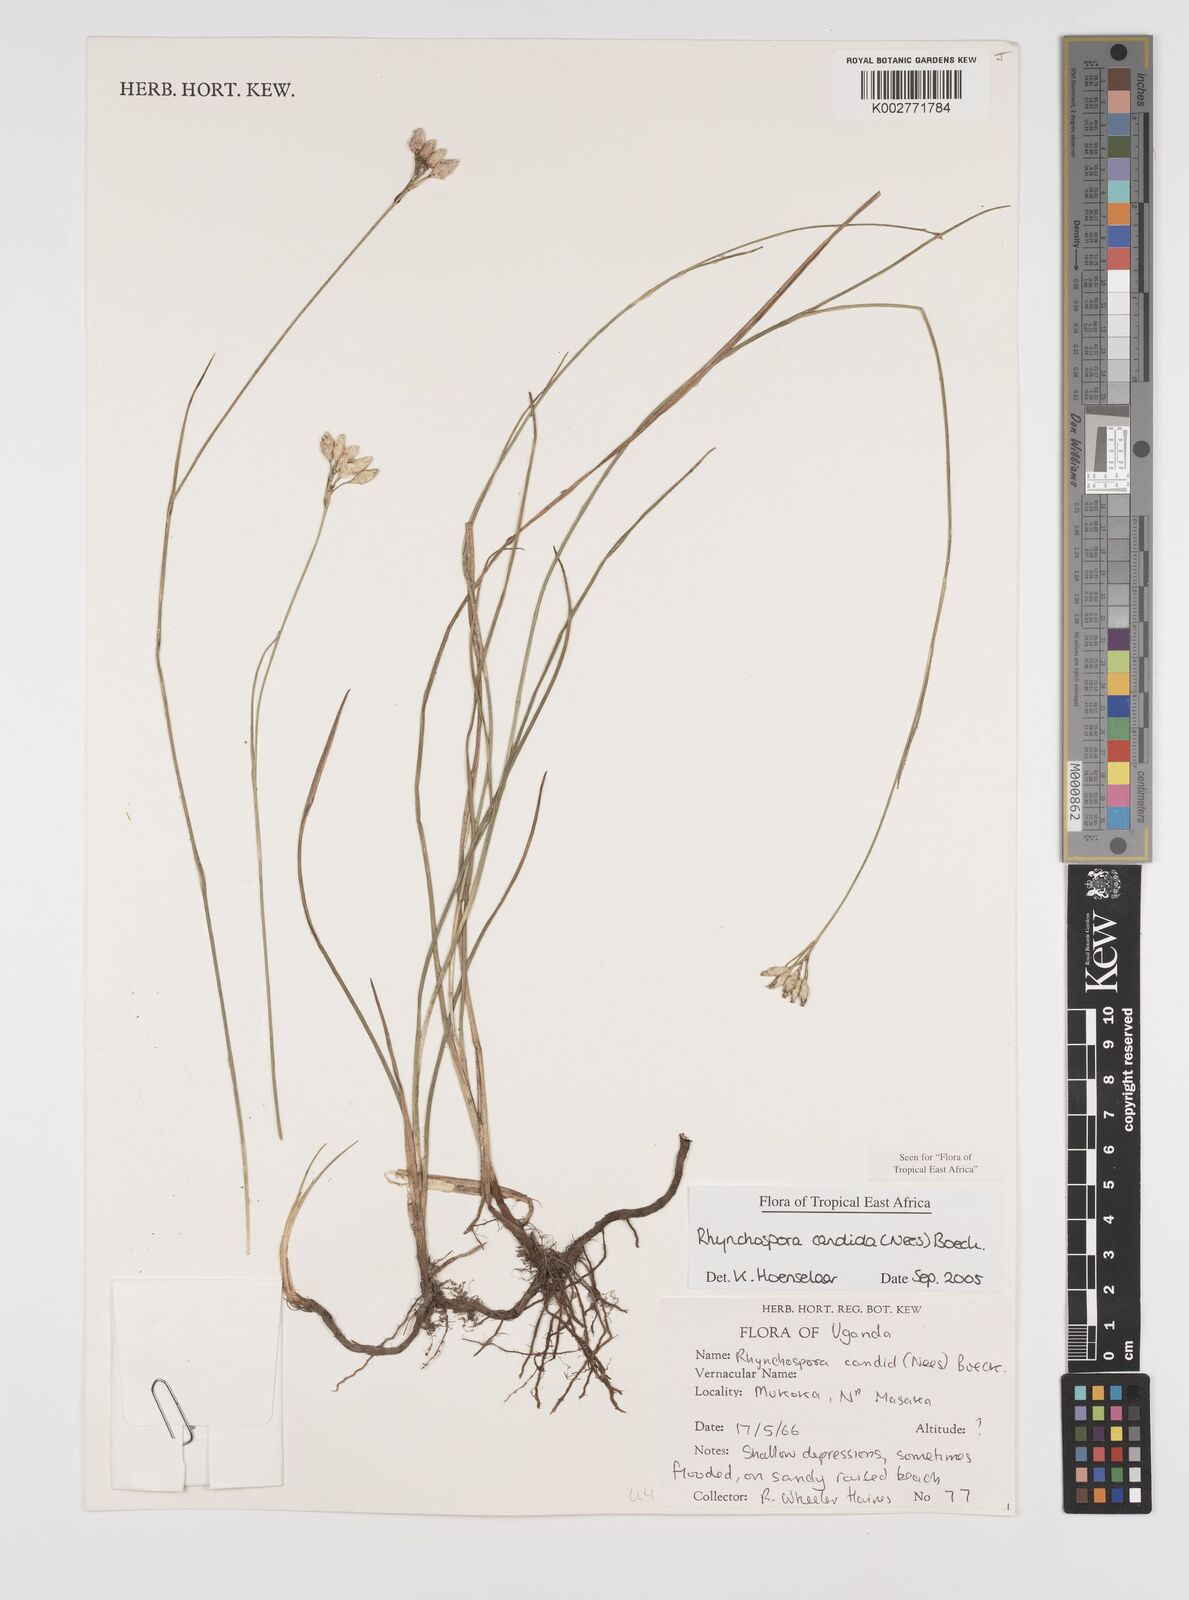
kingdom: Plantae
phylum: Tracheophyta
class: Liliopsida
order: Poales
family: Cyperaceae
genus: Rhynchospora
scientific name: Rhynchospora candida
